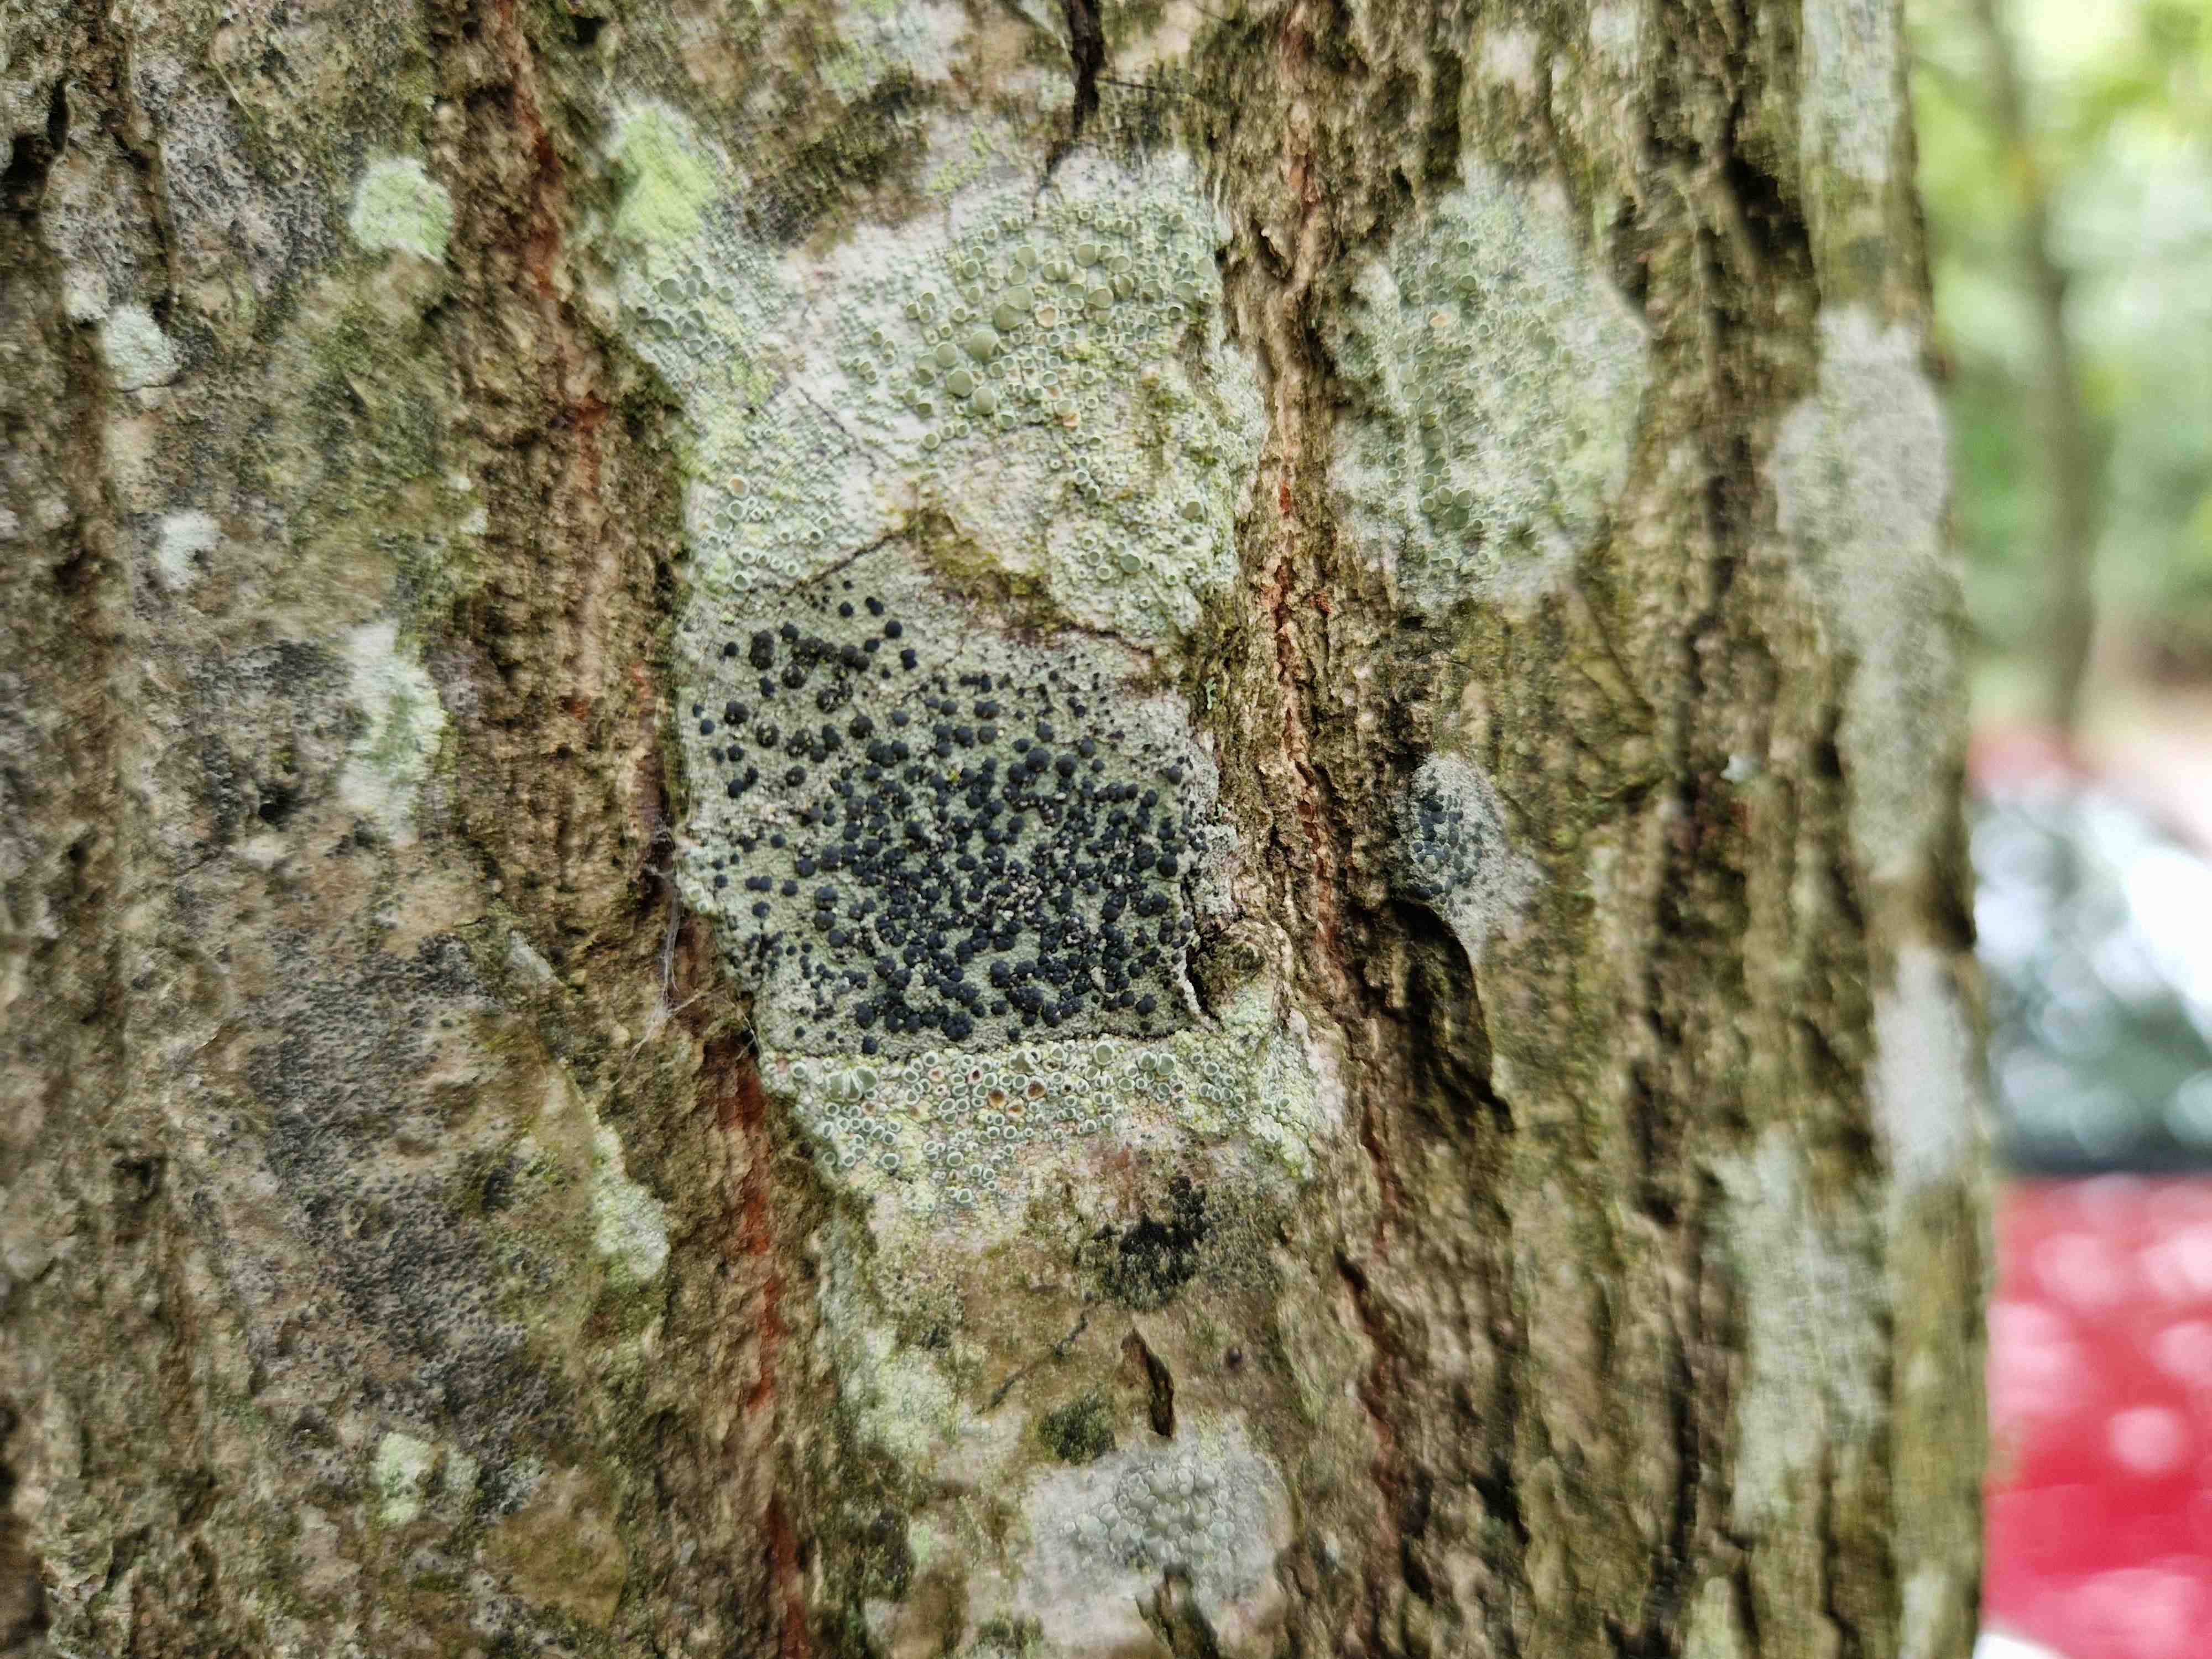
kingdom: Fungi
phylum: Ascomycota
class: Lecanoromycetes
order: Lecanorales
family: Lecanoraceae
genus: Lecidella
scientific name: Lecidella elaeochroma
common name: grågrøn skivelav
